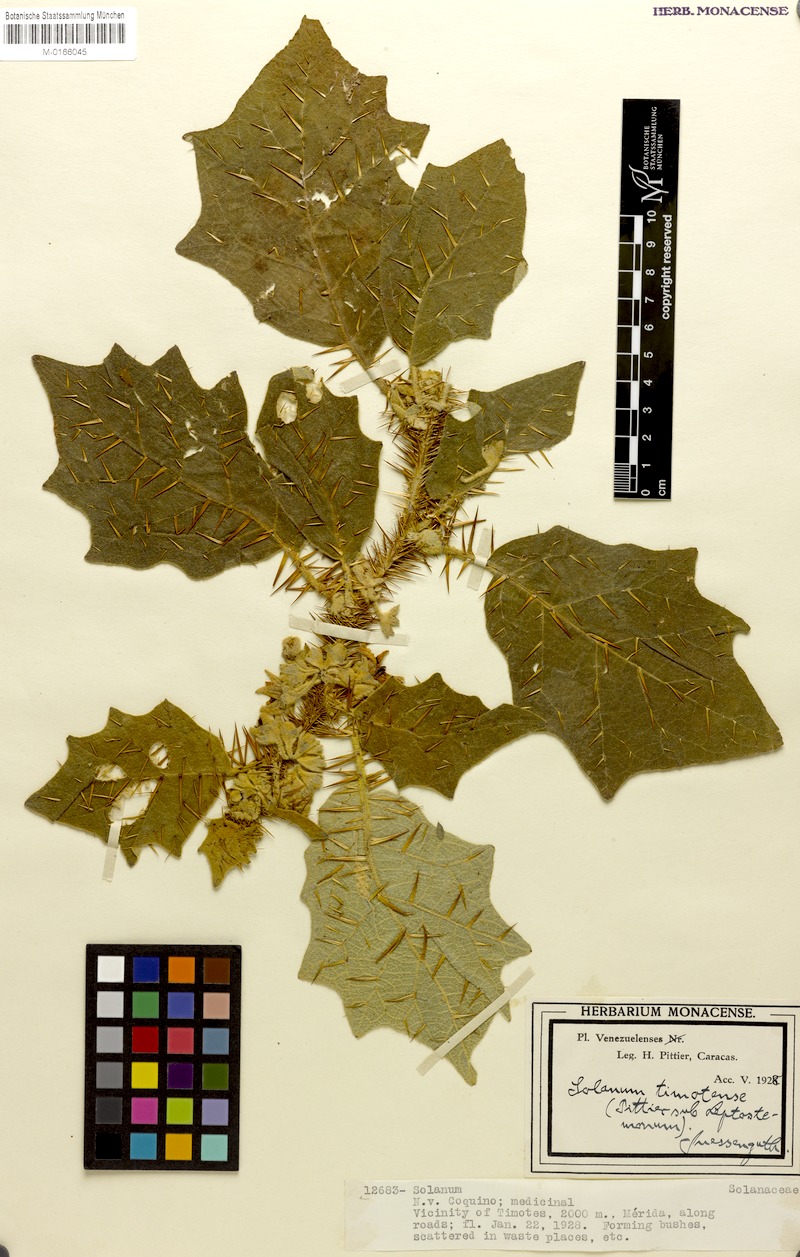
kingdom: Plantae
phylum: Tracheophyta
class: Magnoliopsida
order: Solanales
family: Solanaceae
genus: Solanum
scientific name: Solanum hirtum
